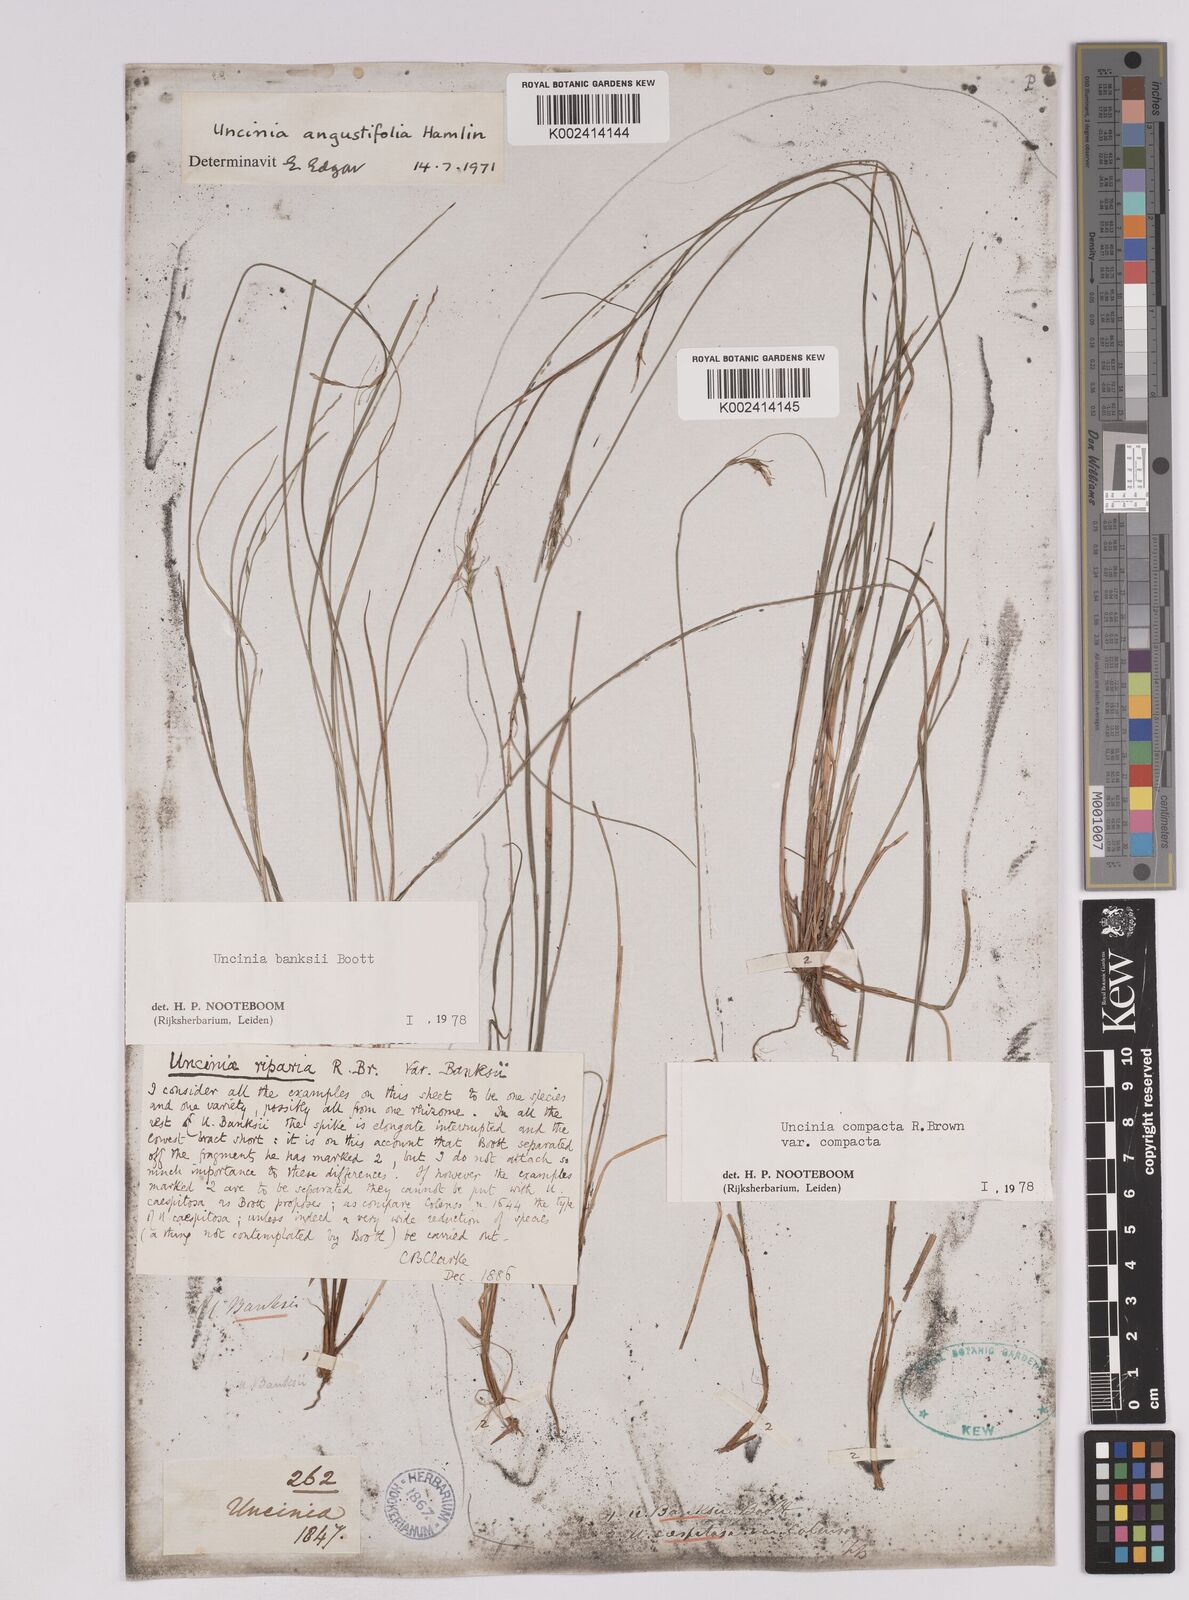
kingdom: Plantae
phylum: Tracheophyta
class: Liliopsida
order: Poales
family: Cyperaceae
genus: Carex
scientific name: Carex austrocompacta
